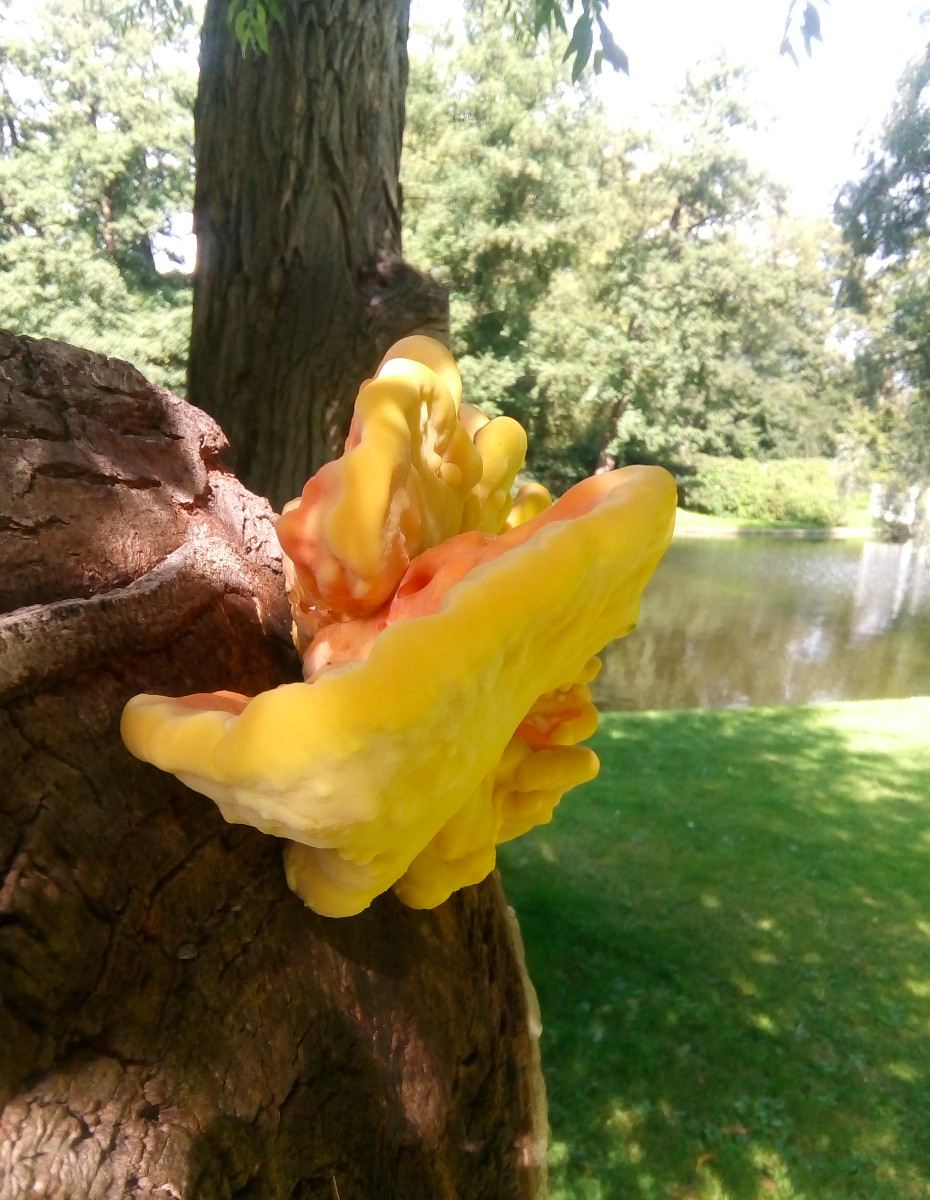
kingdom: Fungi
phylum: Basidiomycota
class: Agaricomycetes
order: Polyporales
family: Laetiporaceae
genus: Laetiporus
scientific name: Laetiporus sulphureus
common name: svovlporesvamp
